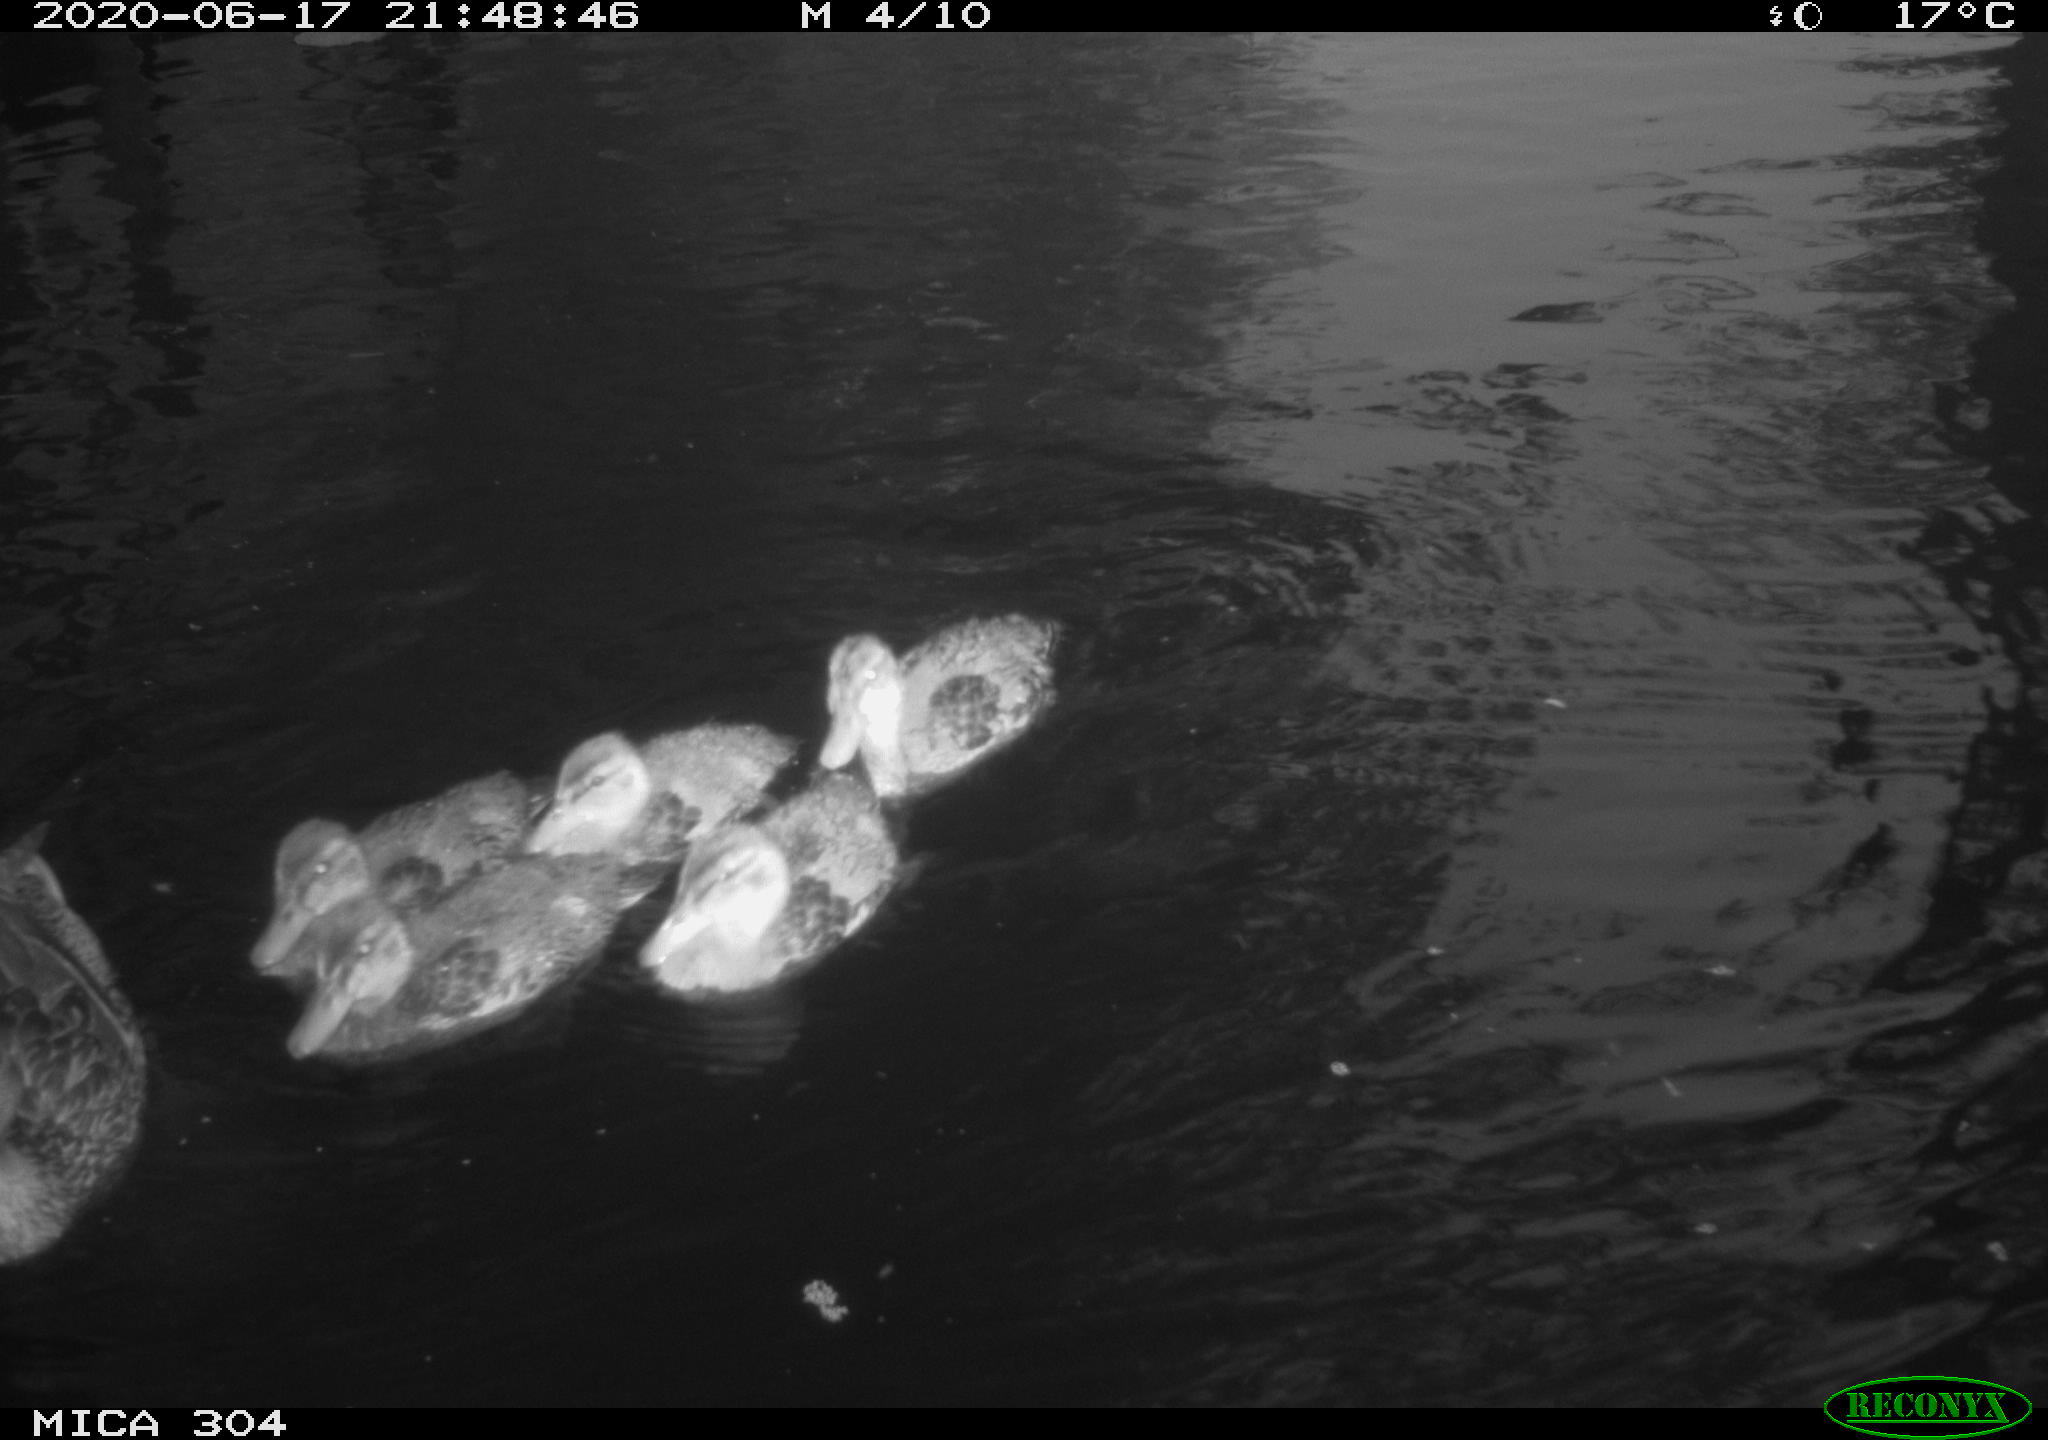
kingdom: Animalia
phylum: Chordata
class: Aves
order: Anseriformes
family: Anatidae
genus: Anas
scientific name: Anas platyrhynchos
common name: Mallard
